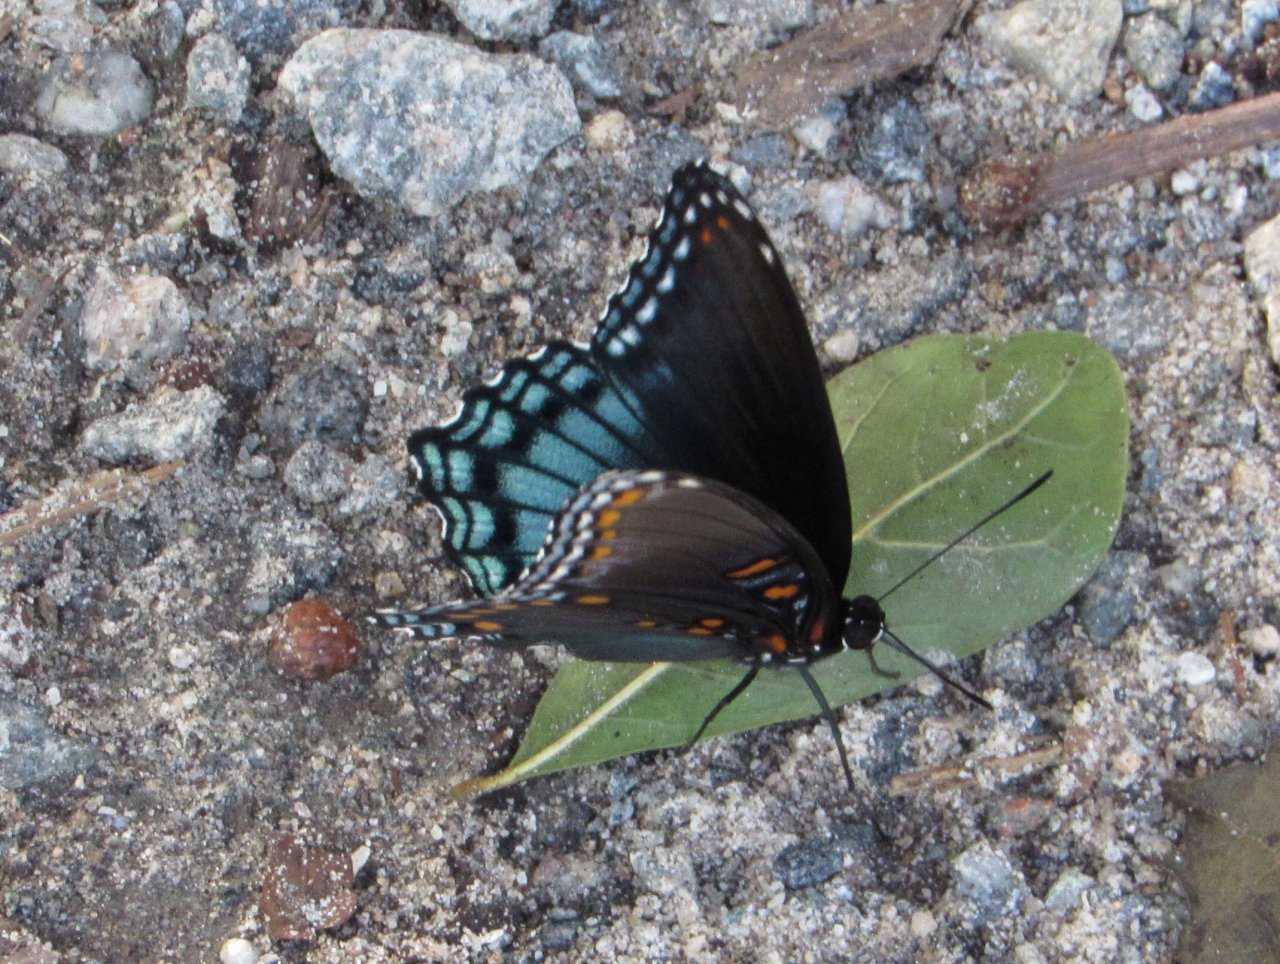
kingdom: Animalia
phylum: Arthropoda
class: Insecta
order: Lepidoptera
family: Nymphalidae
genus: Limenitis
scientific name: Limenitis astyanax
